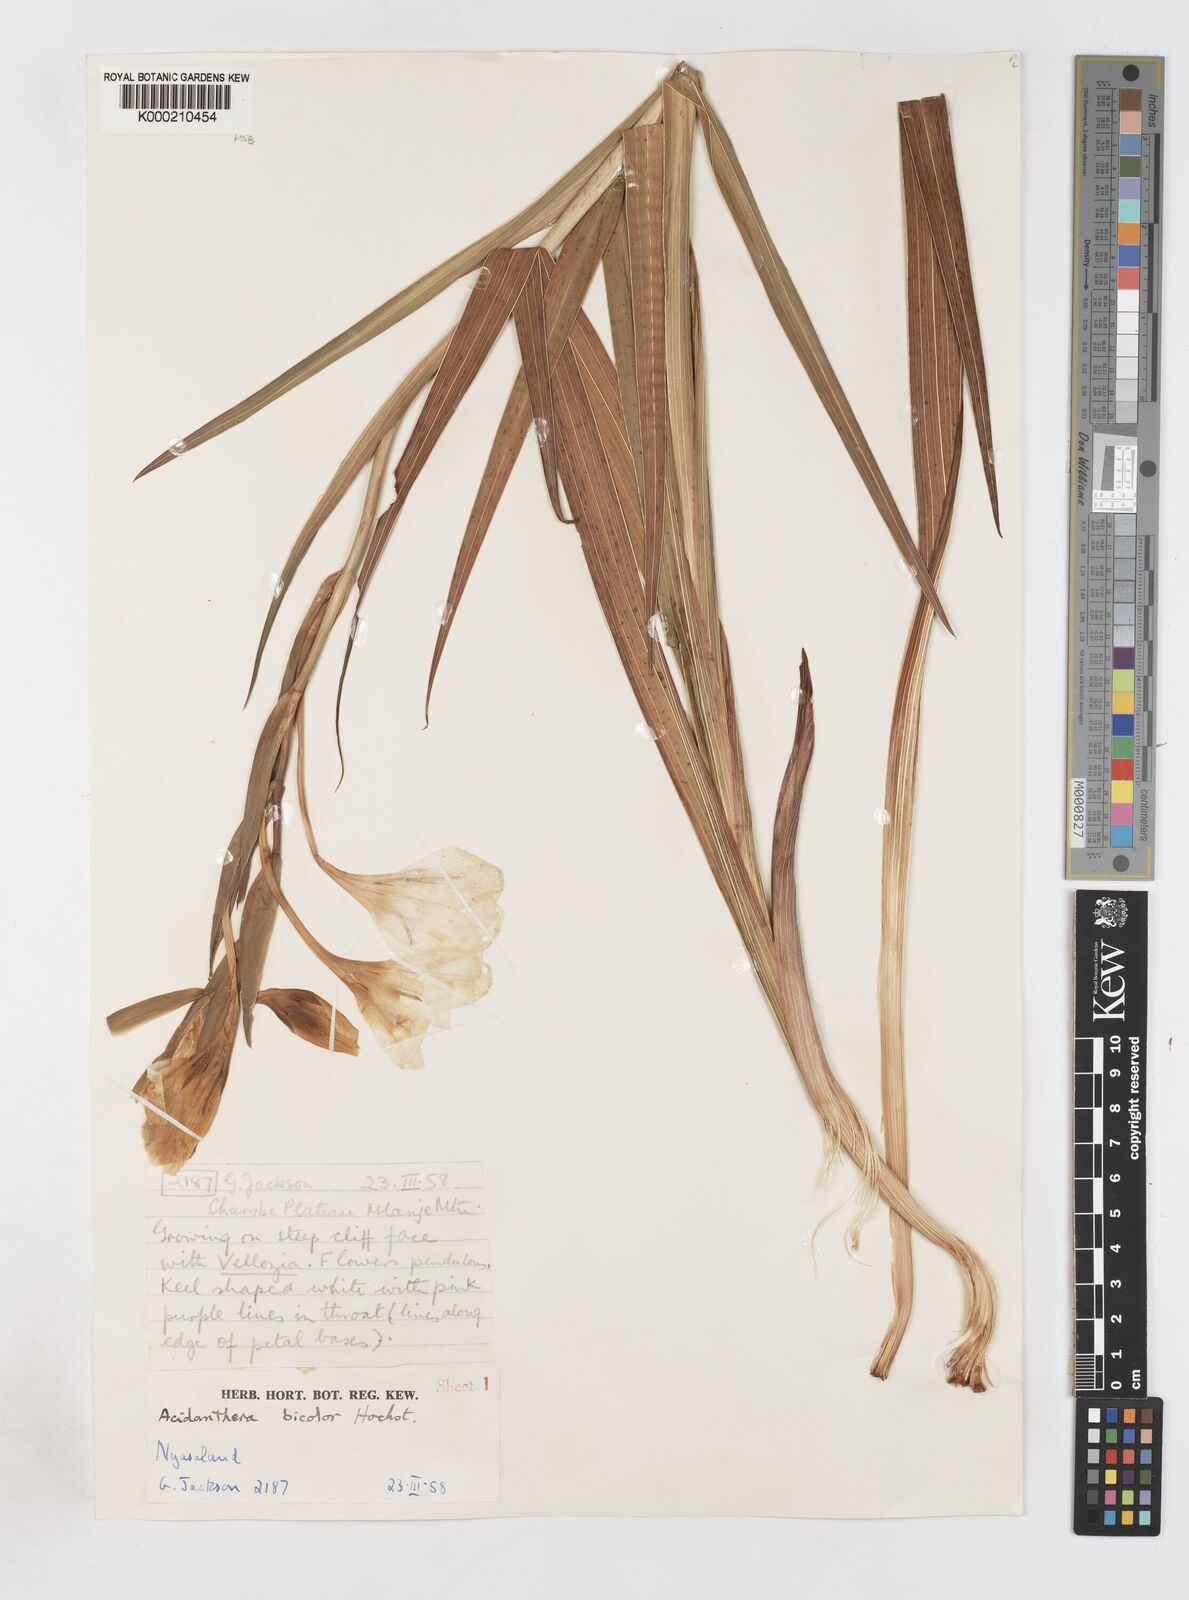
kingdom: Plantae
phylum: Tracheophyta
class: Liliopsida
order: Asparagales
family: Iridaceae
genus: Gladiolus
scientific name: Gladiolus bellus
